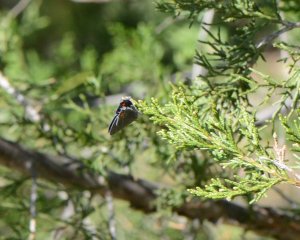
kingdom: Animalia
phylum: Arthropoda
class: Insecta
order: Lepidoptera
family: Lycaenidae
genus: Strymon
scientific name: Strymon melinus
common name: Gray Hairstreak
